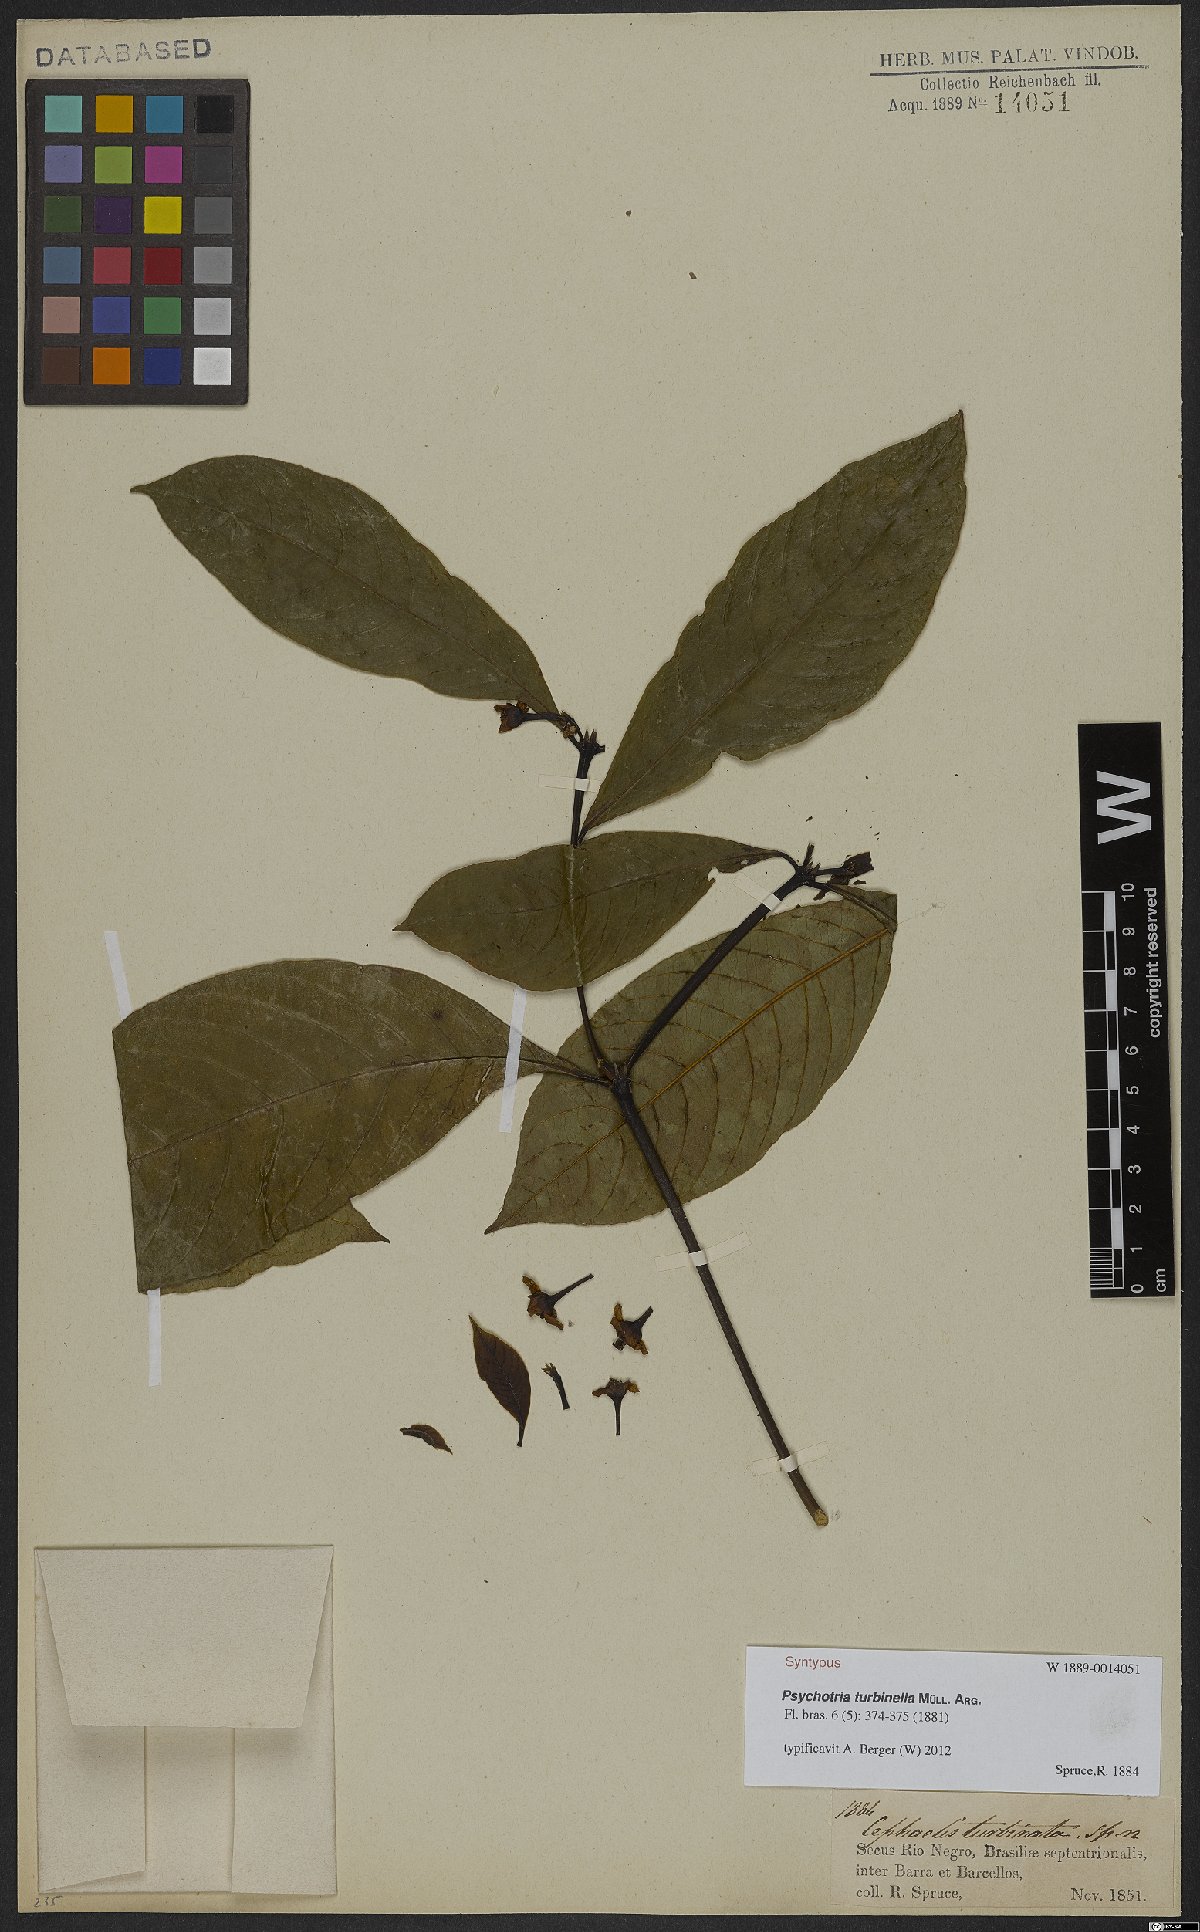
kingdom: Plantae
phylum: Tracheophyta
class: Magnoliopsida
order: Gentianales
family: Rubiaceae
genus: Palicourea
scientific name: Palicourea turbinella
